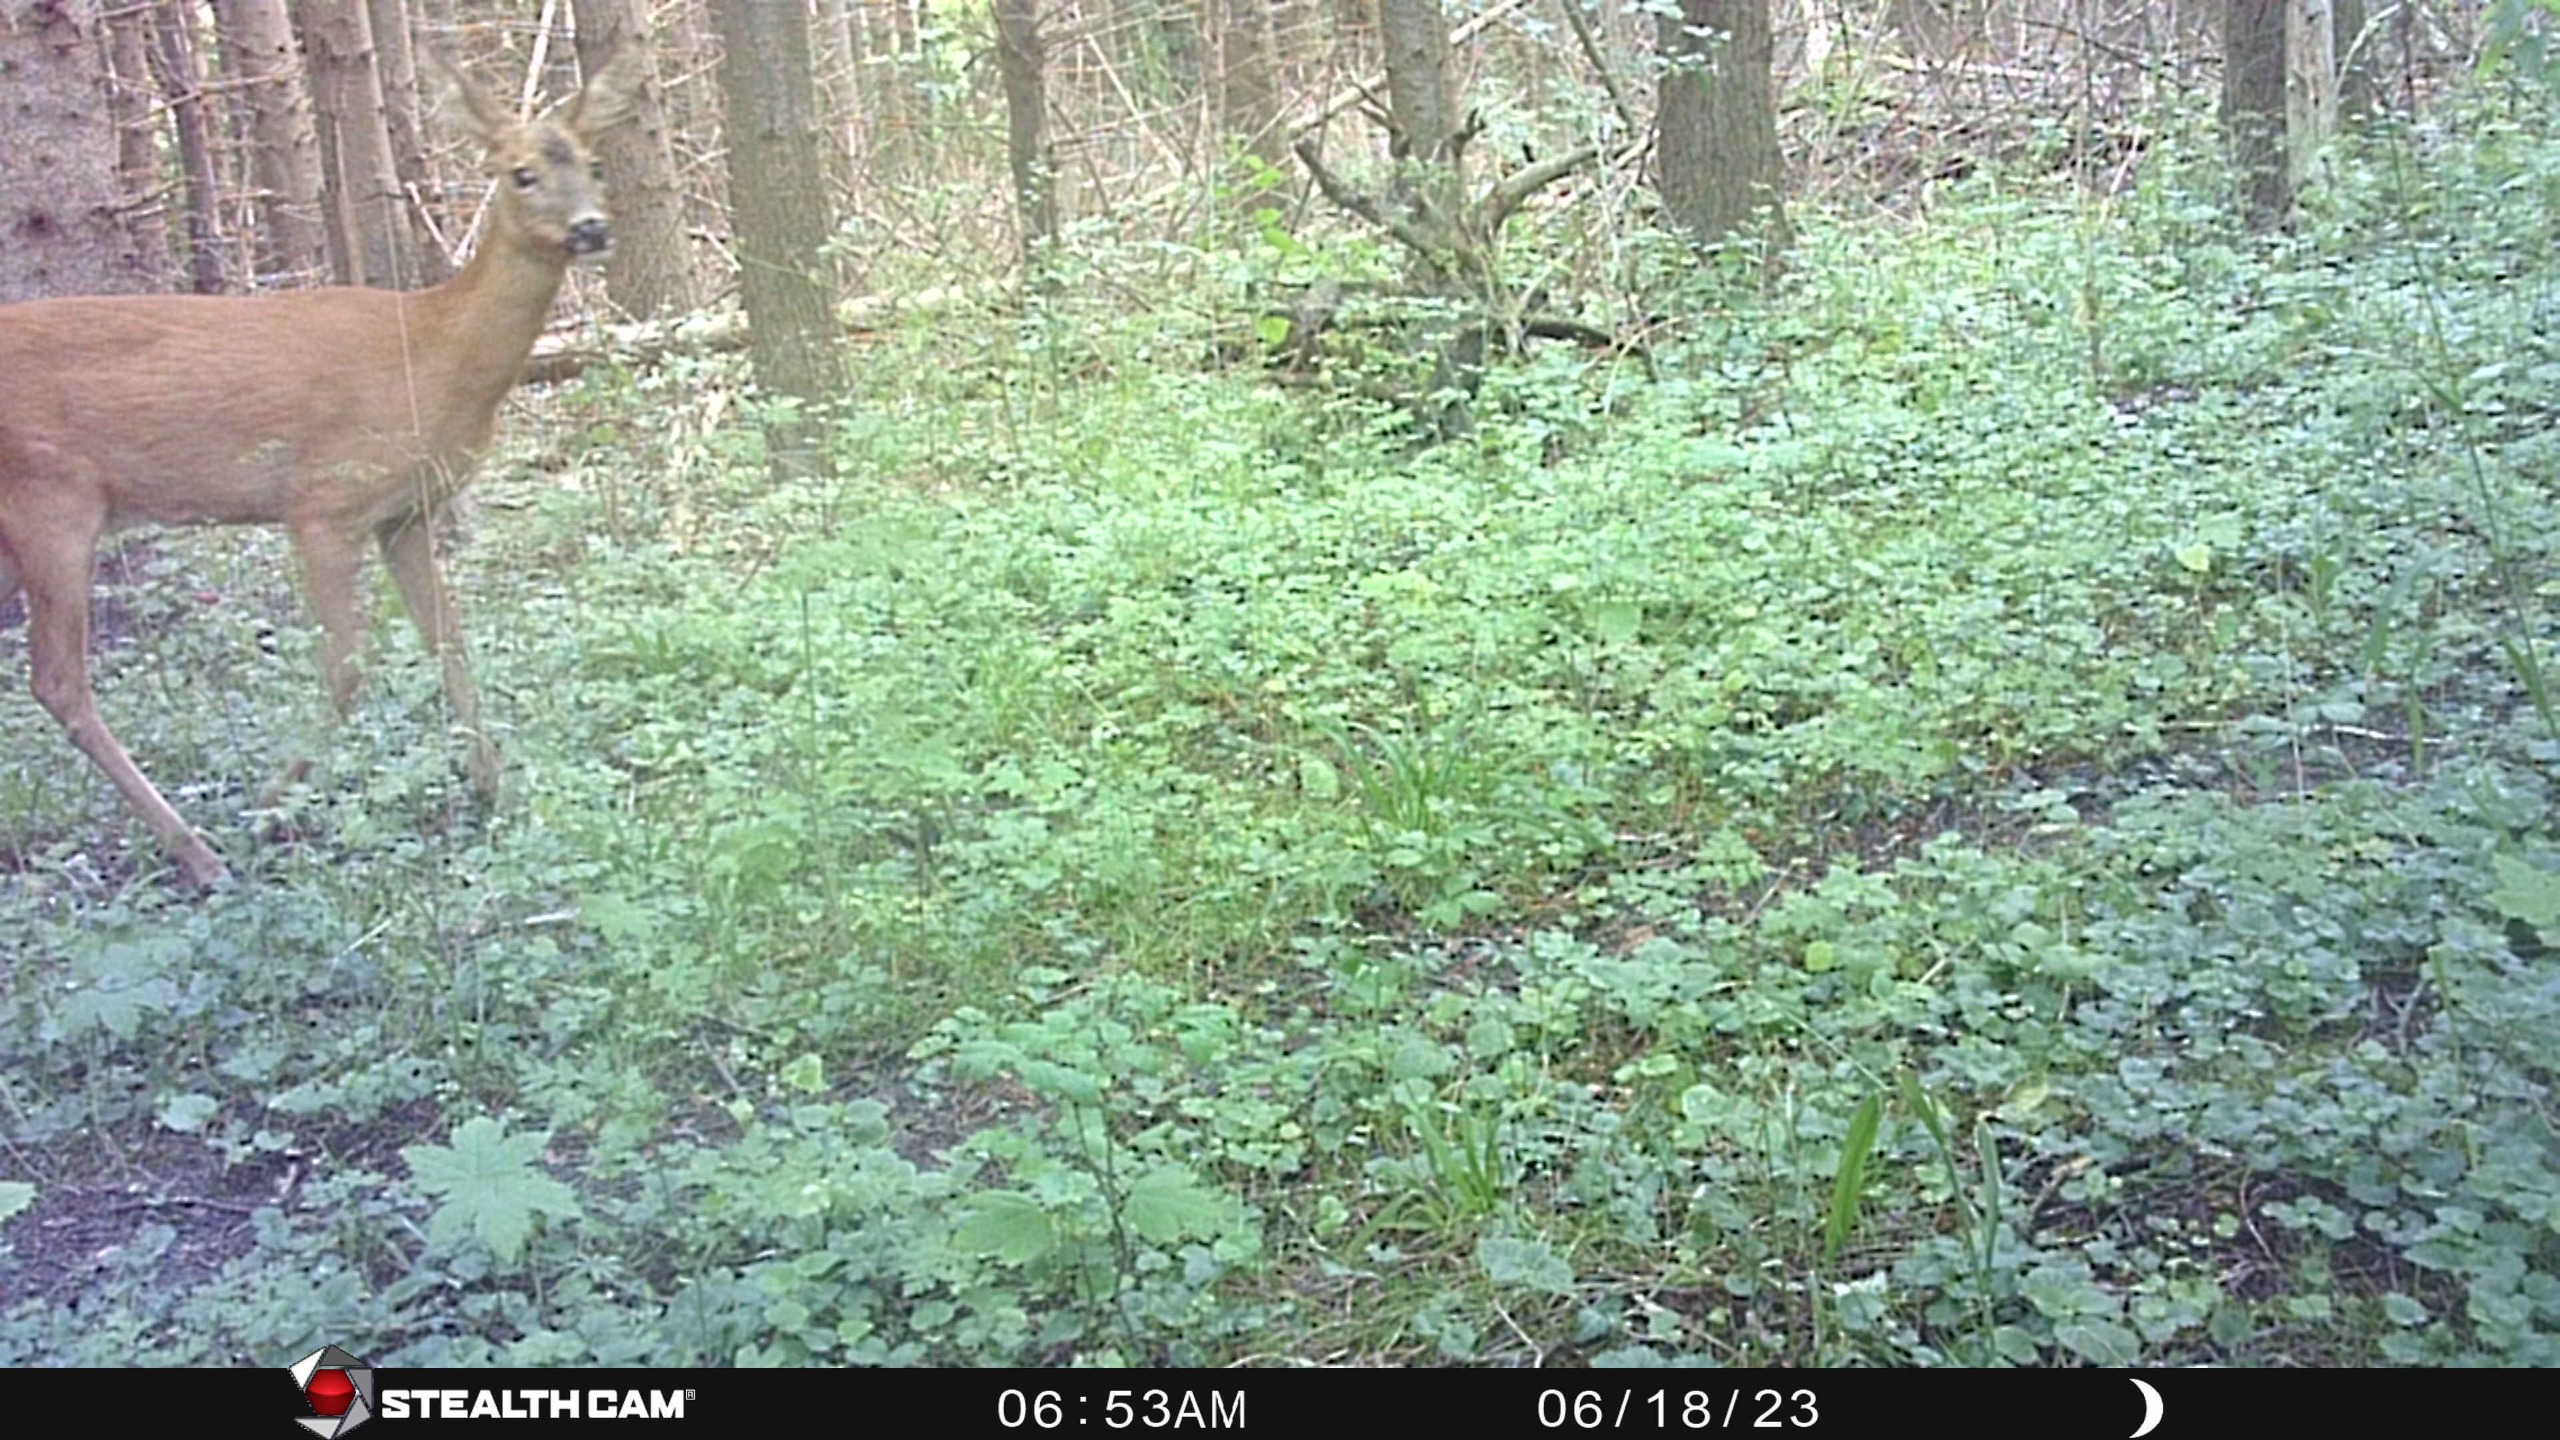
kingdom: Animalia
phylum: Chordata
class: Mammalia
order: Artiodactyla
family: Cervidae
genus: Capreolus
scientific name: Capreolus capreolus
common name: Rådyr
